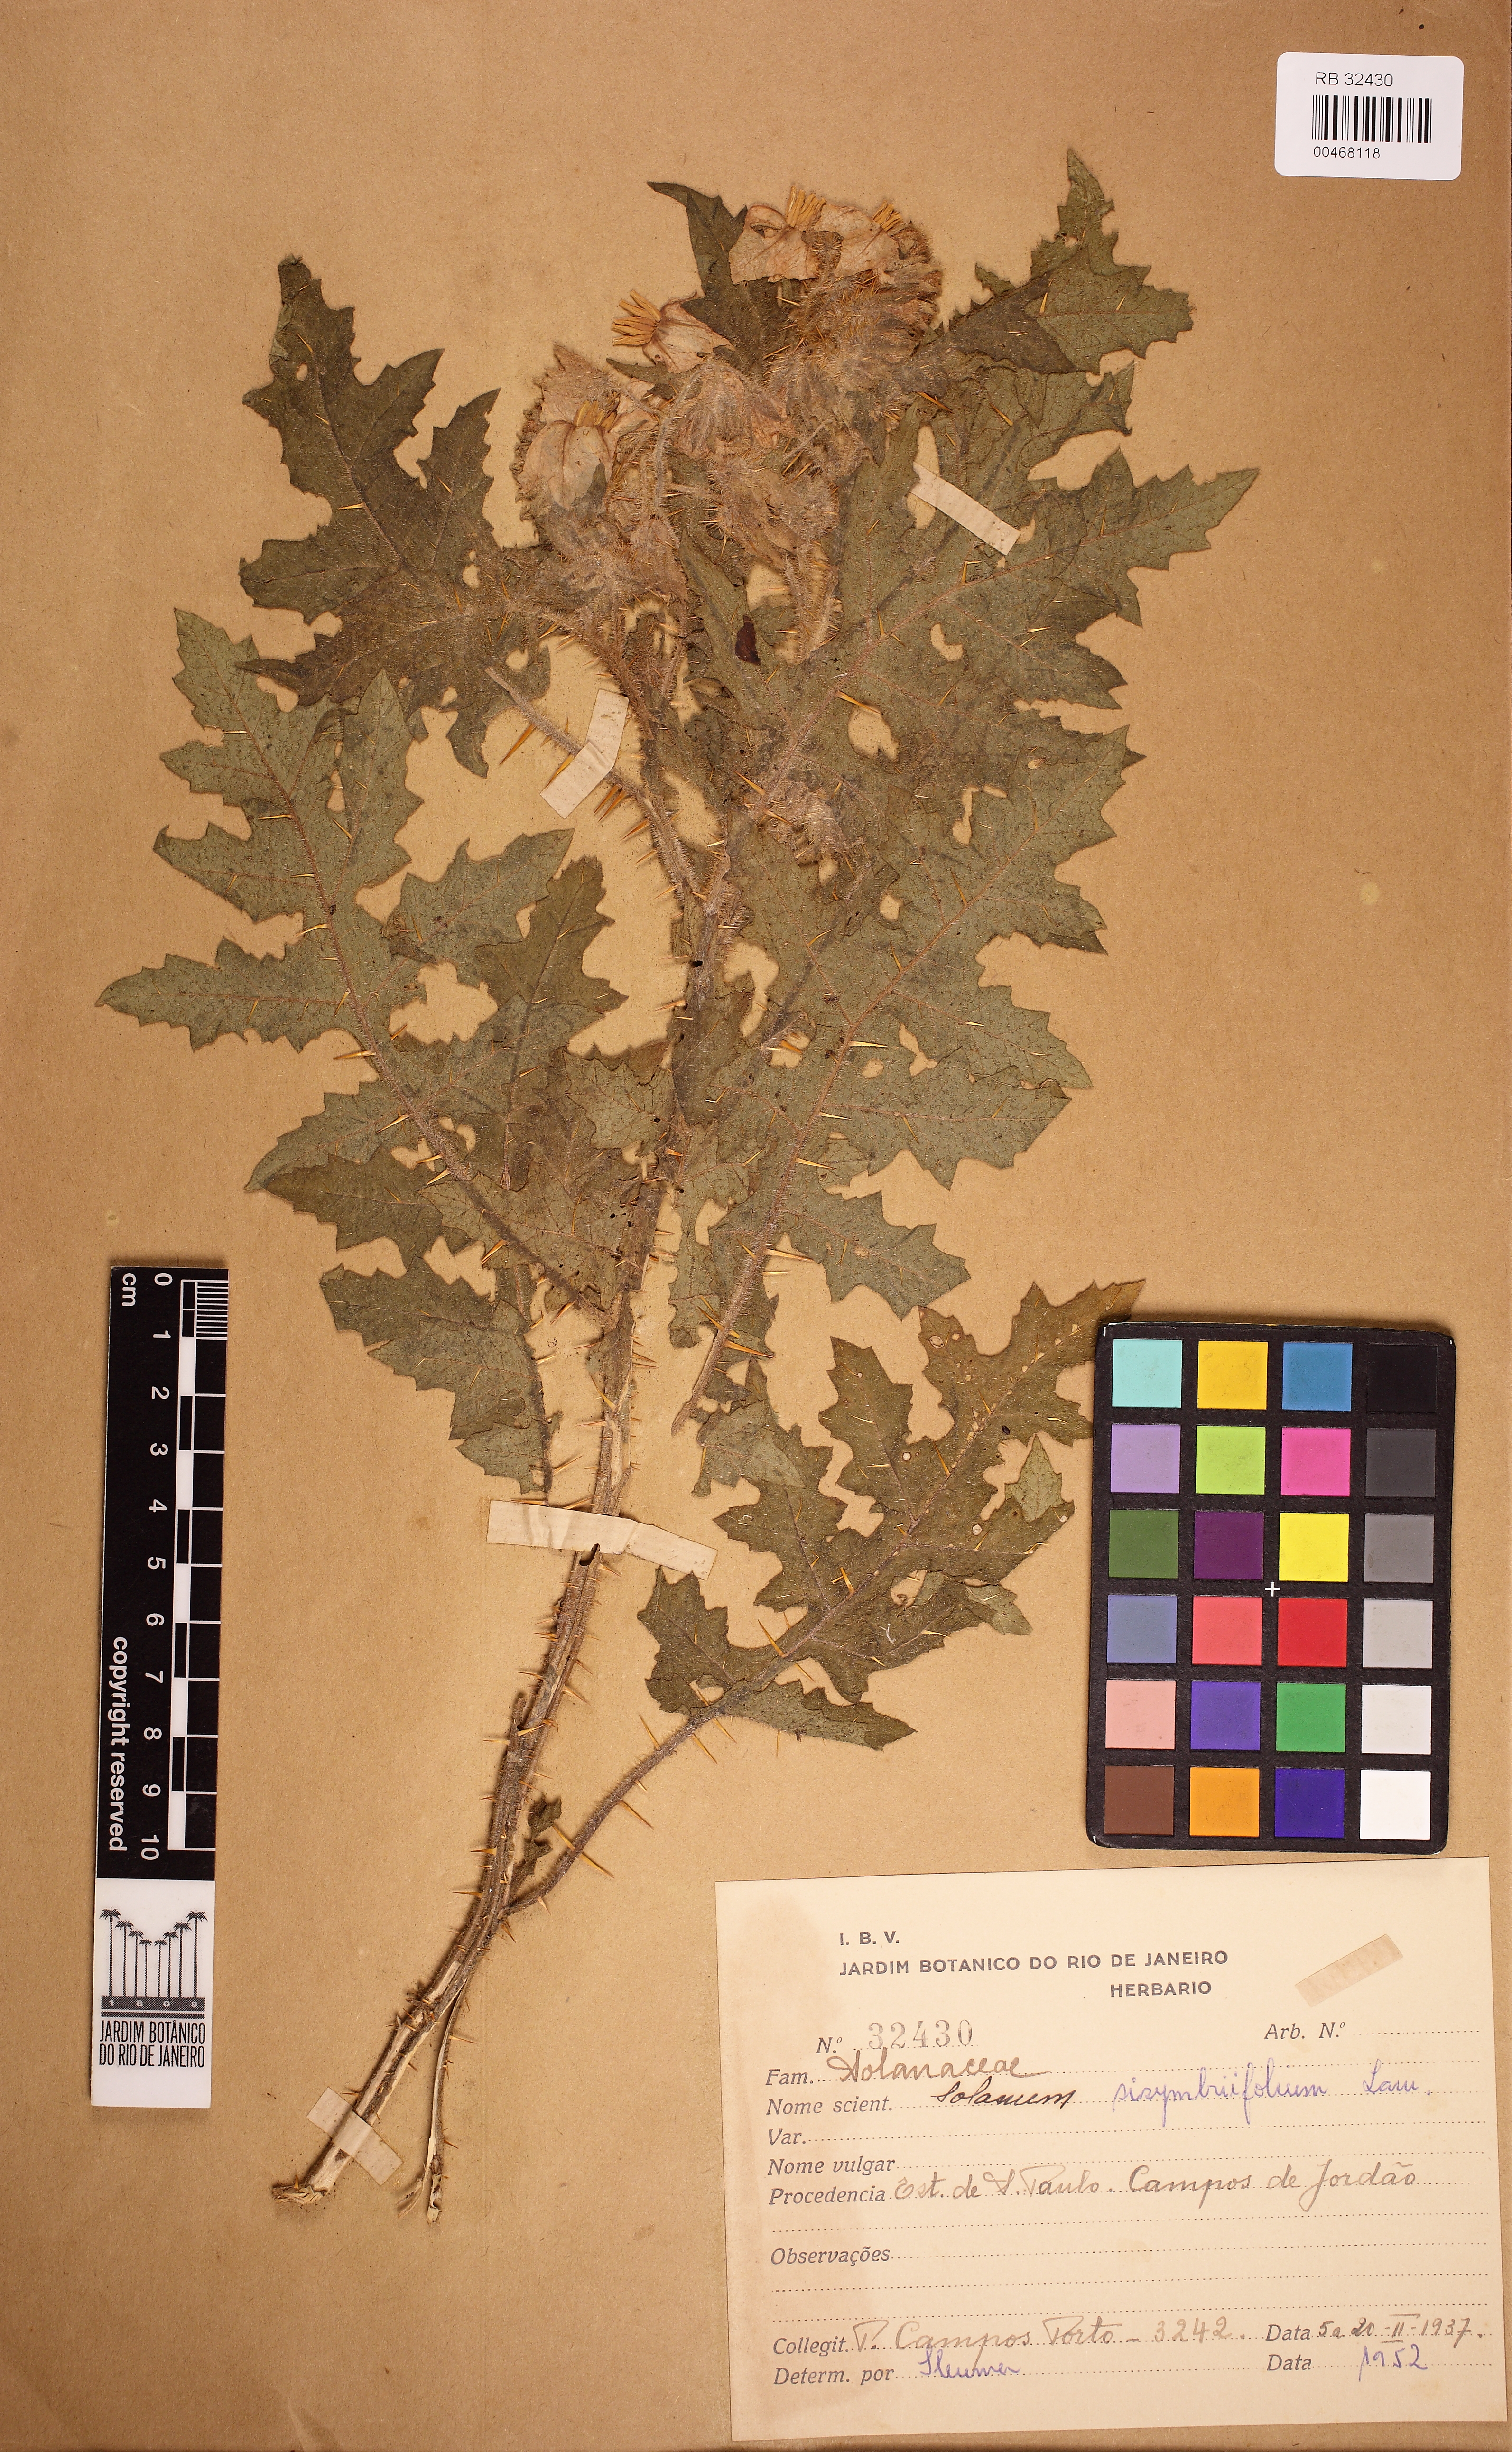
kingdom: Plantae
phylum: Tracheophyta
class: Magnoliopsida
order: Solanales
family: Solanaceae
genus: Solanum
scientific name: Solanum sisymbriifolium
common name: Red buffalo-bur
